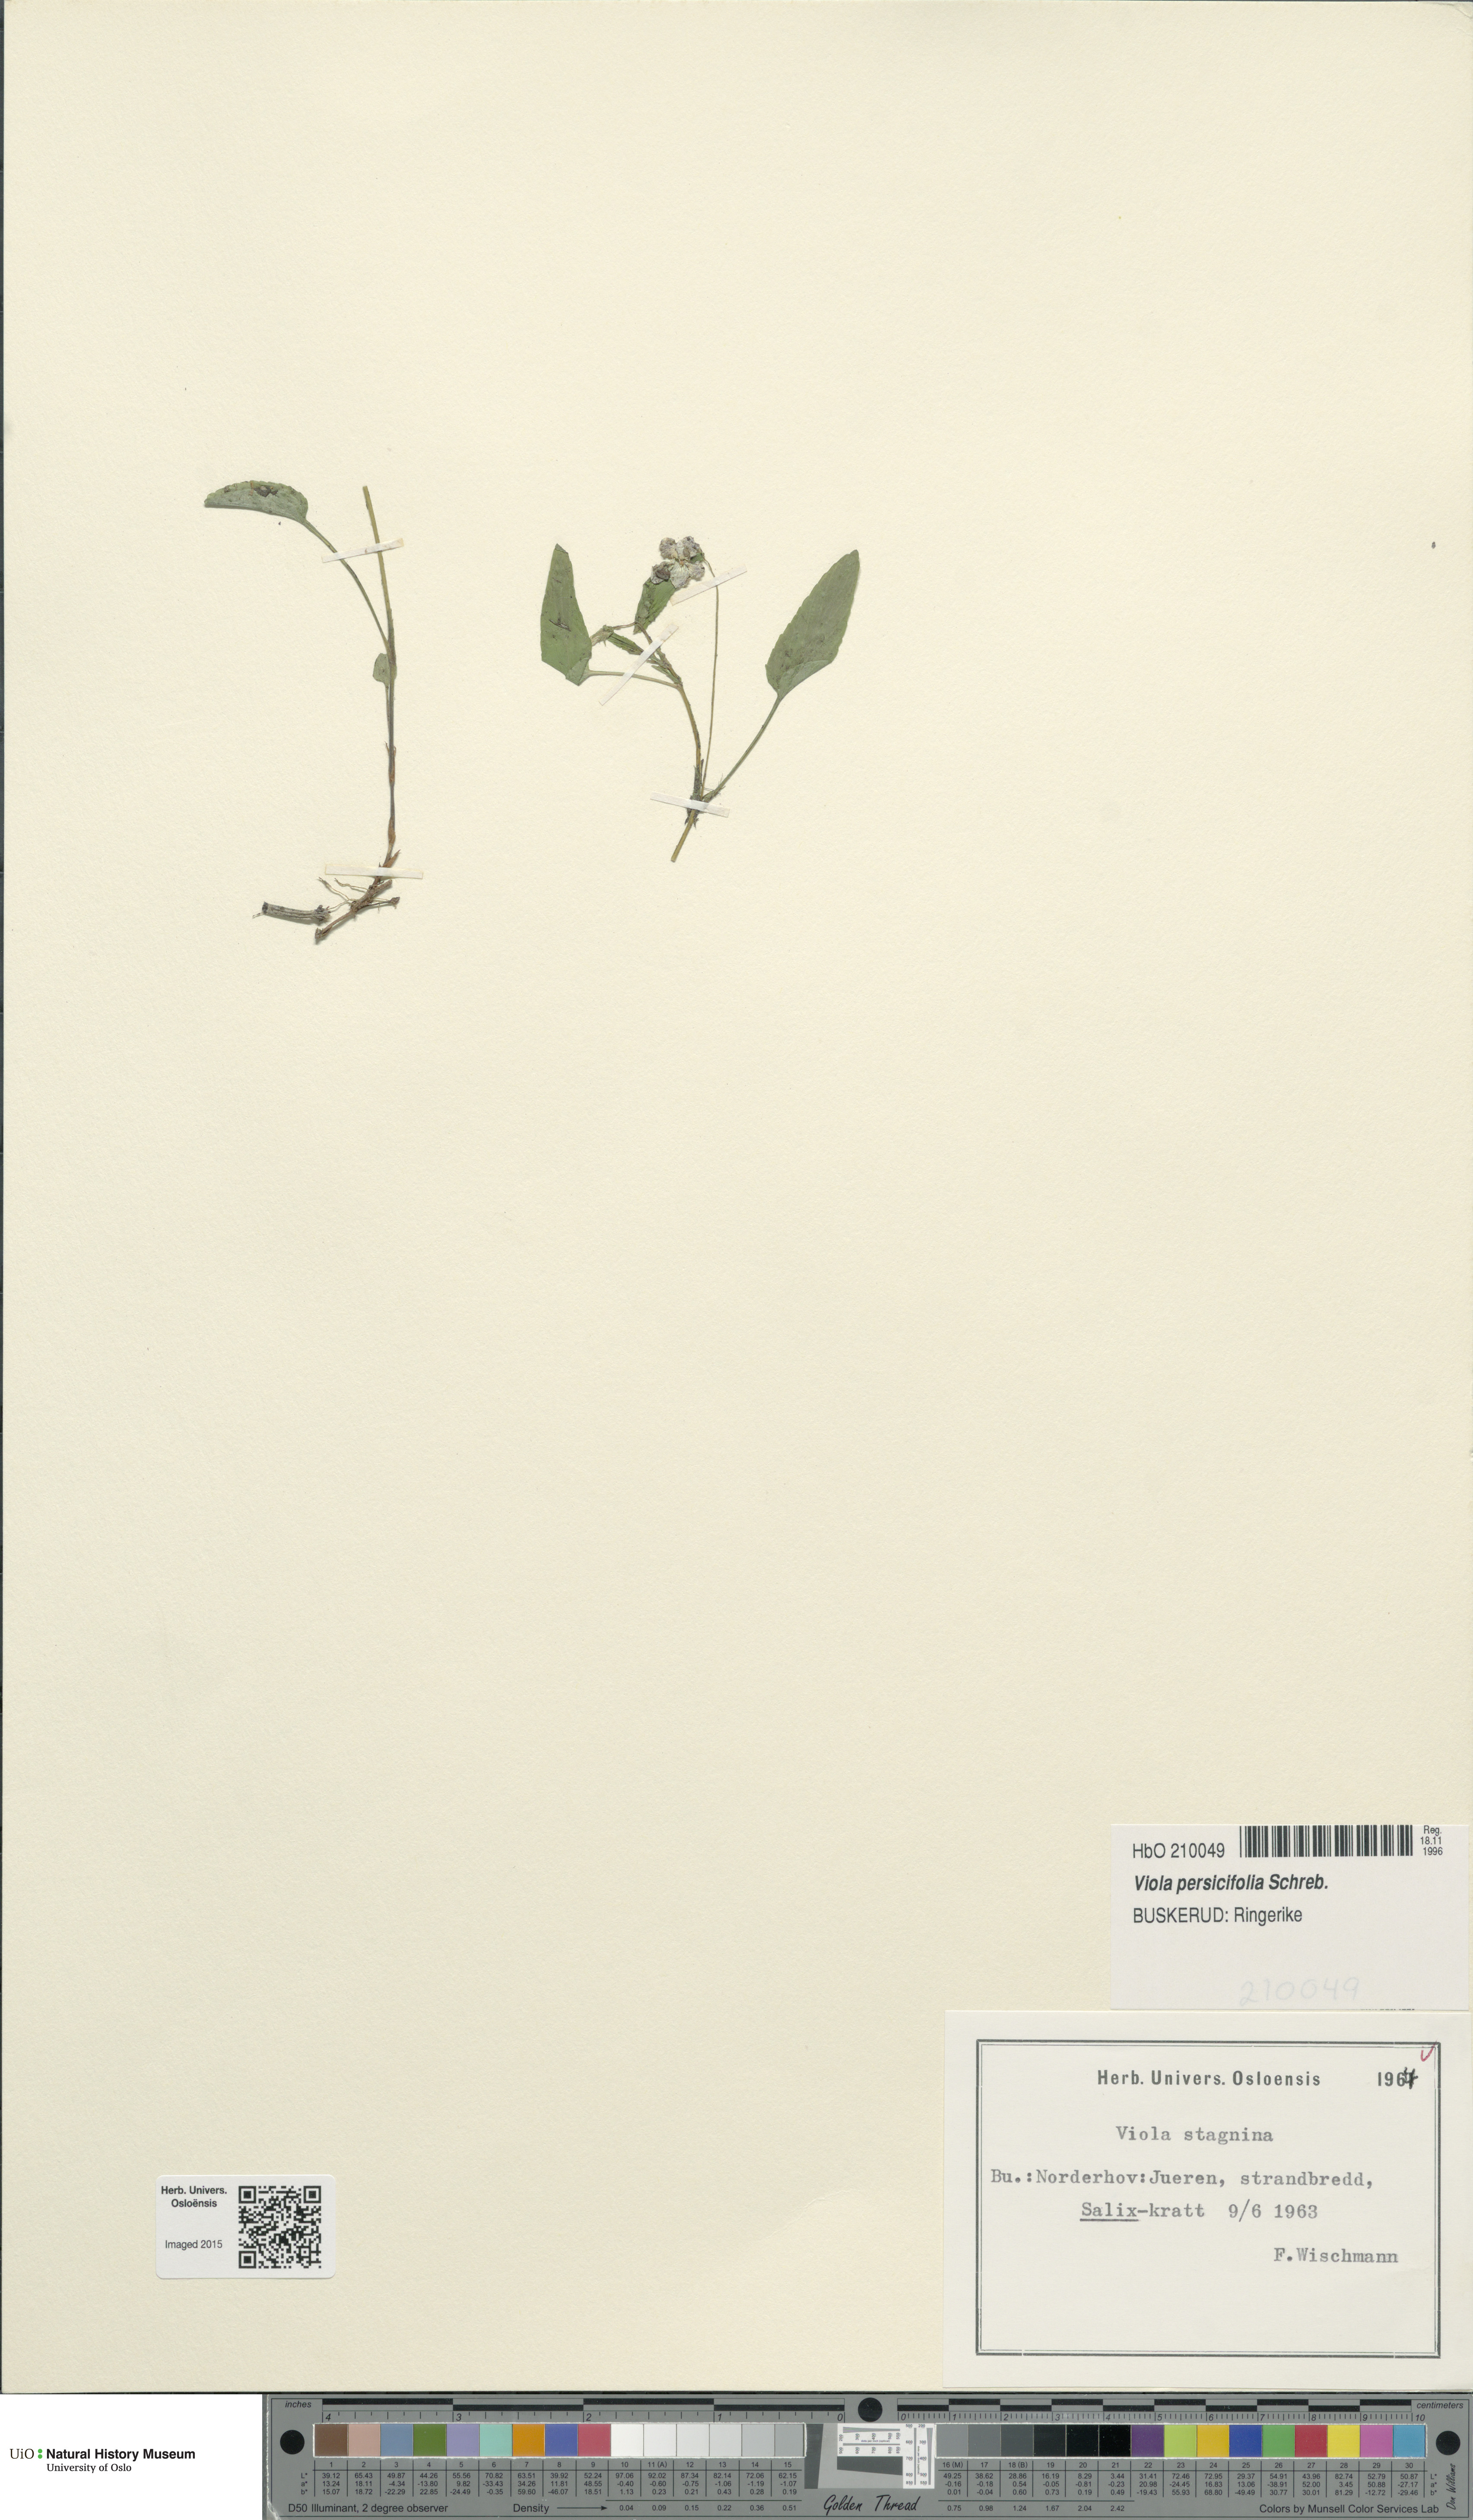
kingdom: Plantae
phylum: Tracheophyta
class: Magnoliopsida
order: Malpighiales
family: Violaceae
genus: Viola
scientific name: Viola stagnina
